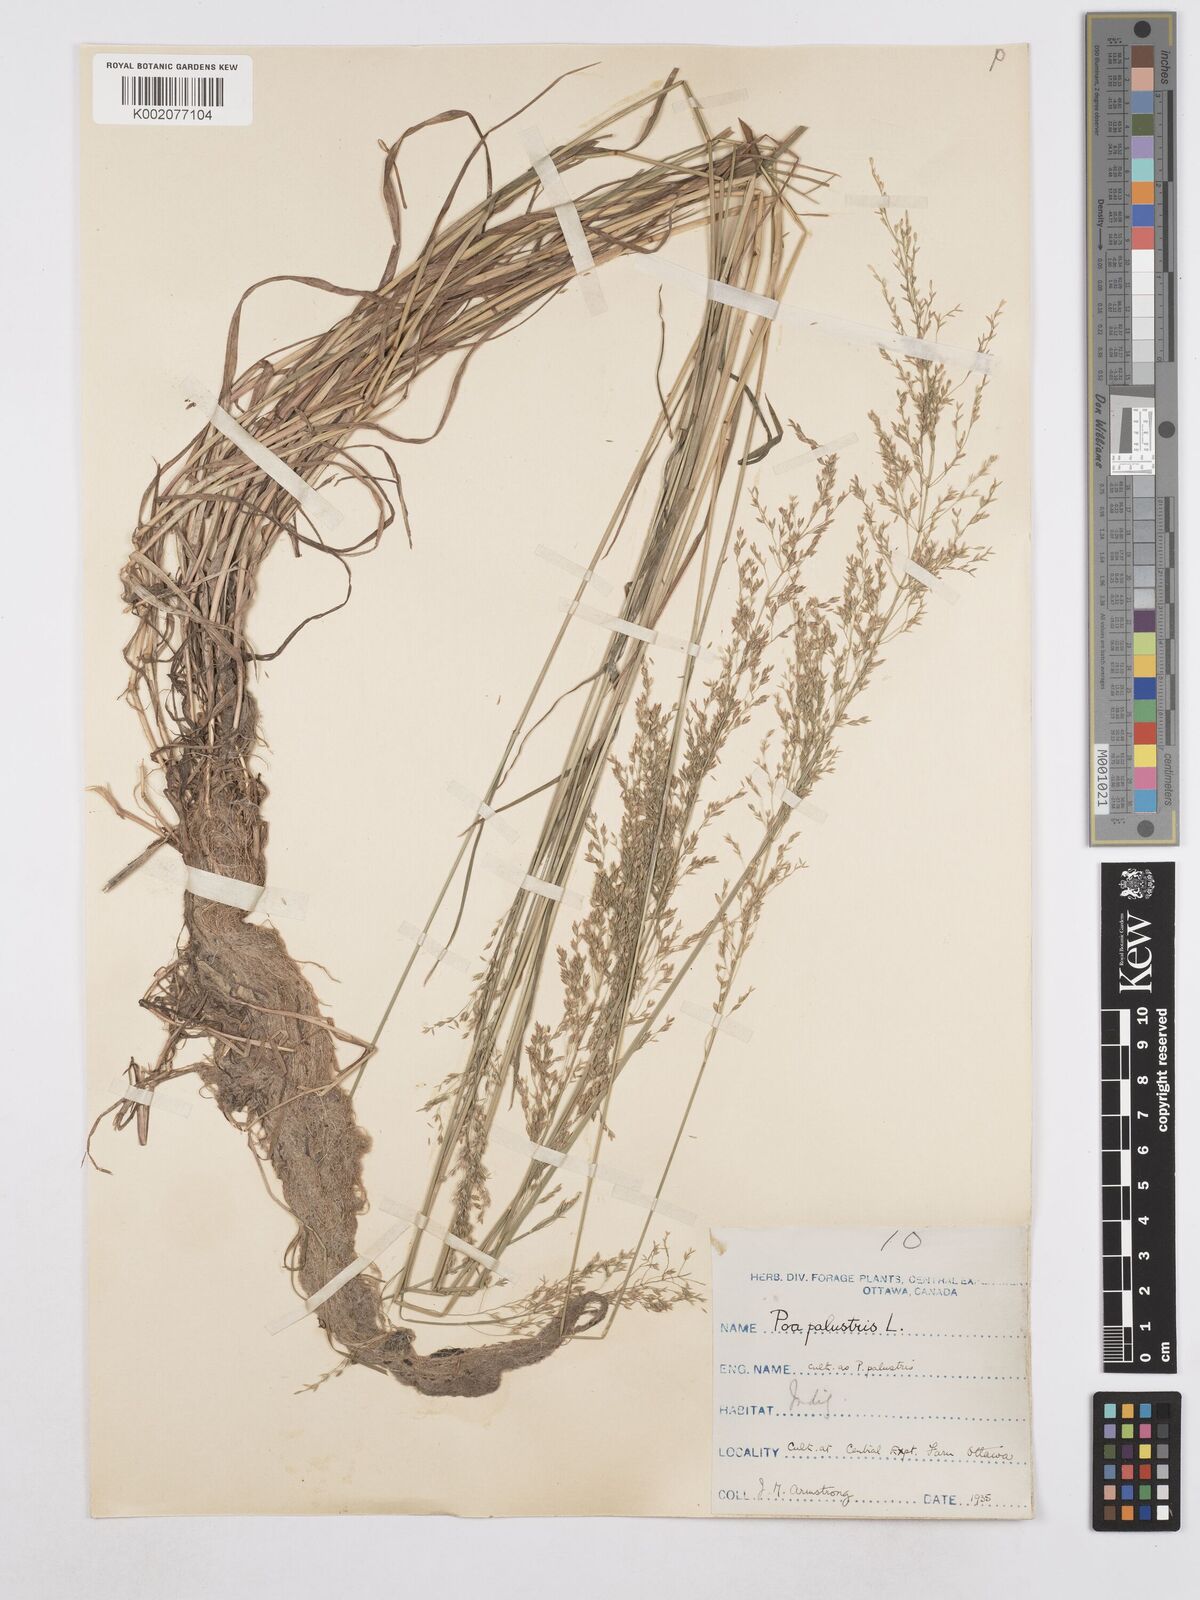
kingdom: Plantae
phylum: Tracheophyta
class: Liliopsida
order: Poales
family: Poaceae
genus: Poa
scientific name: Poa palustris
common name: Swamp meadow-grass
